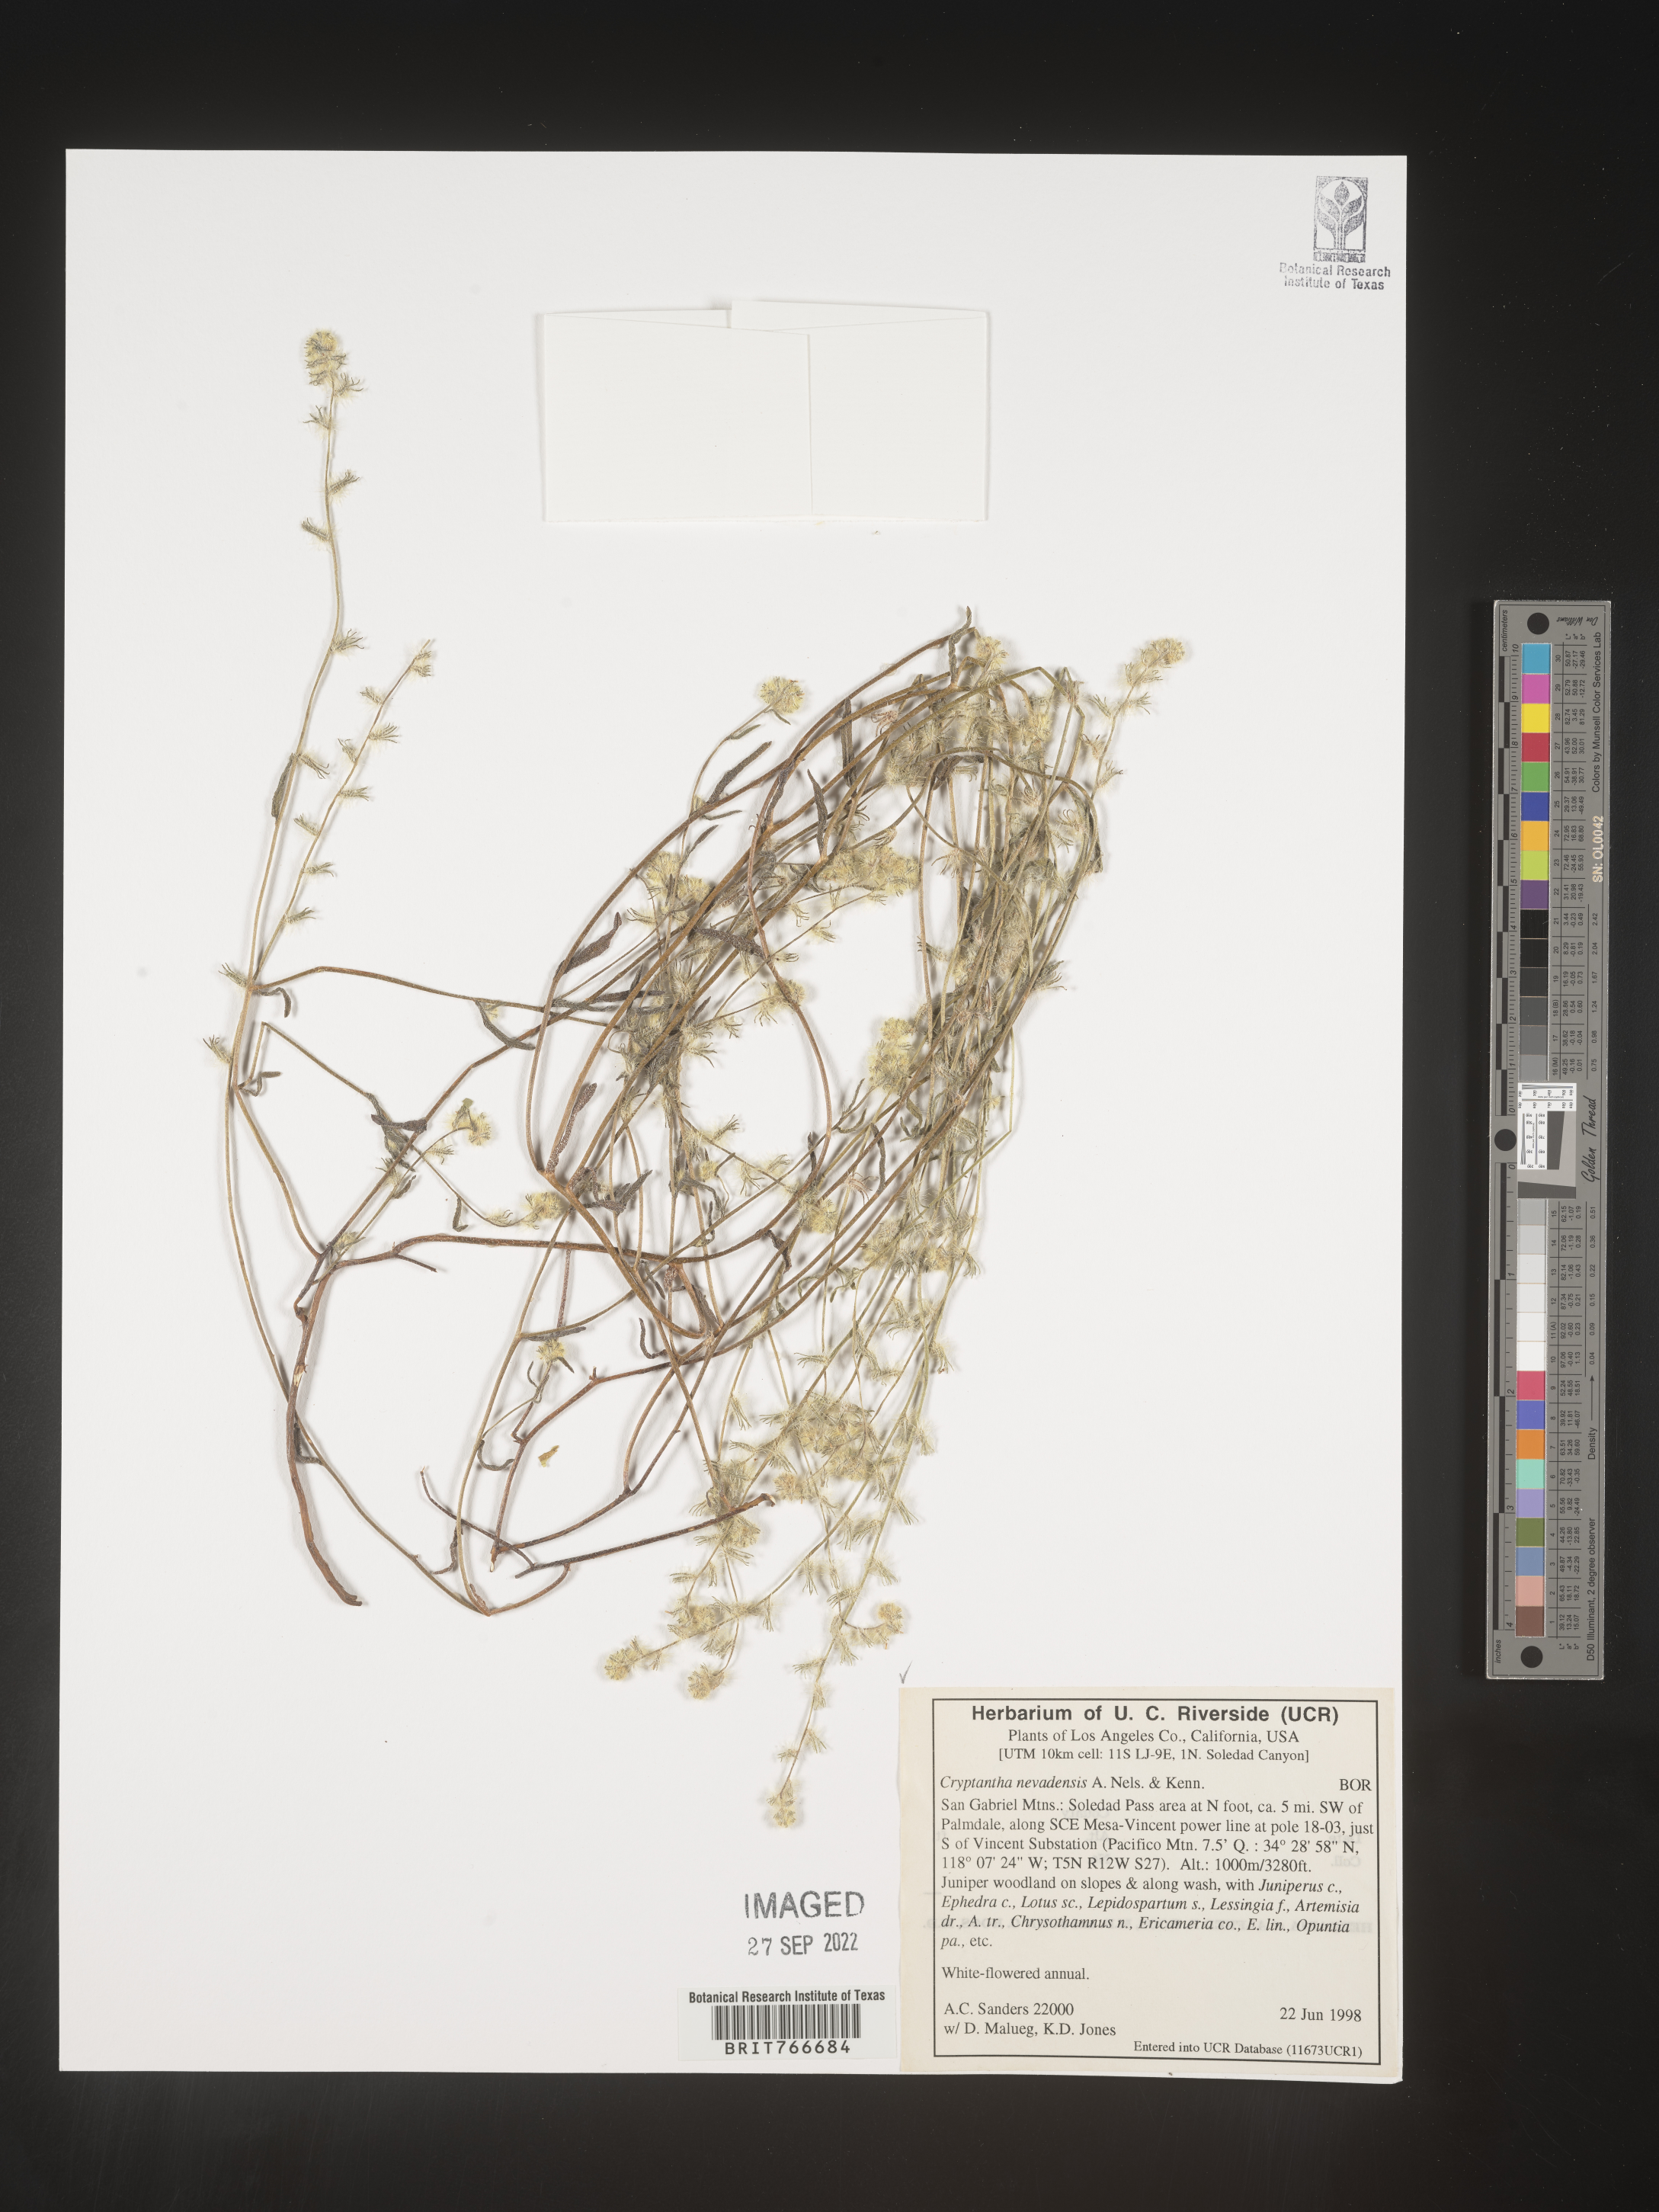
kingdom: Plantae
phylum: Tracheophyta
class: Magnoliopsida
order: Boraginales
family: Boraginaceae
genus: Cryptantha
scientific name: Cryptantha
